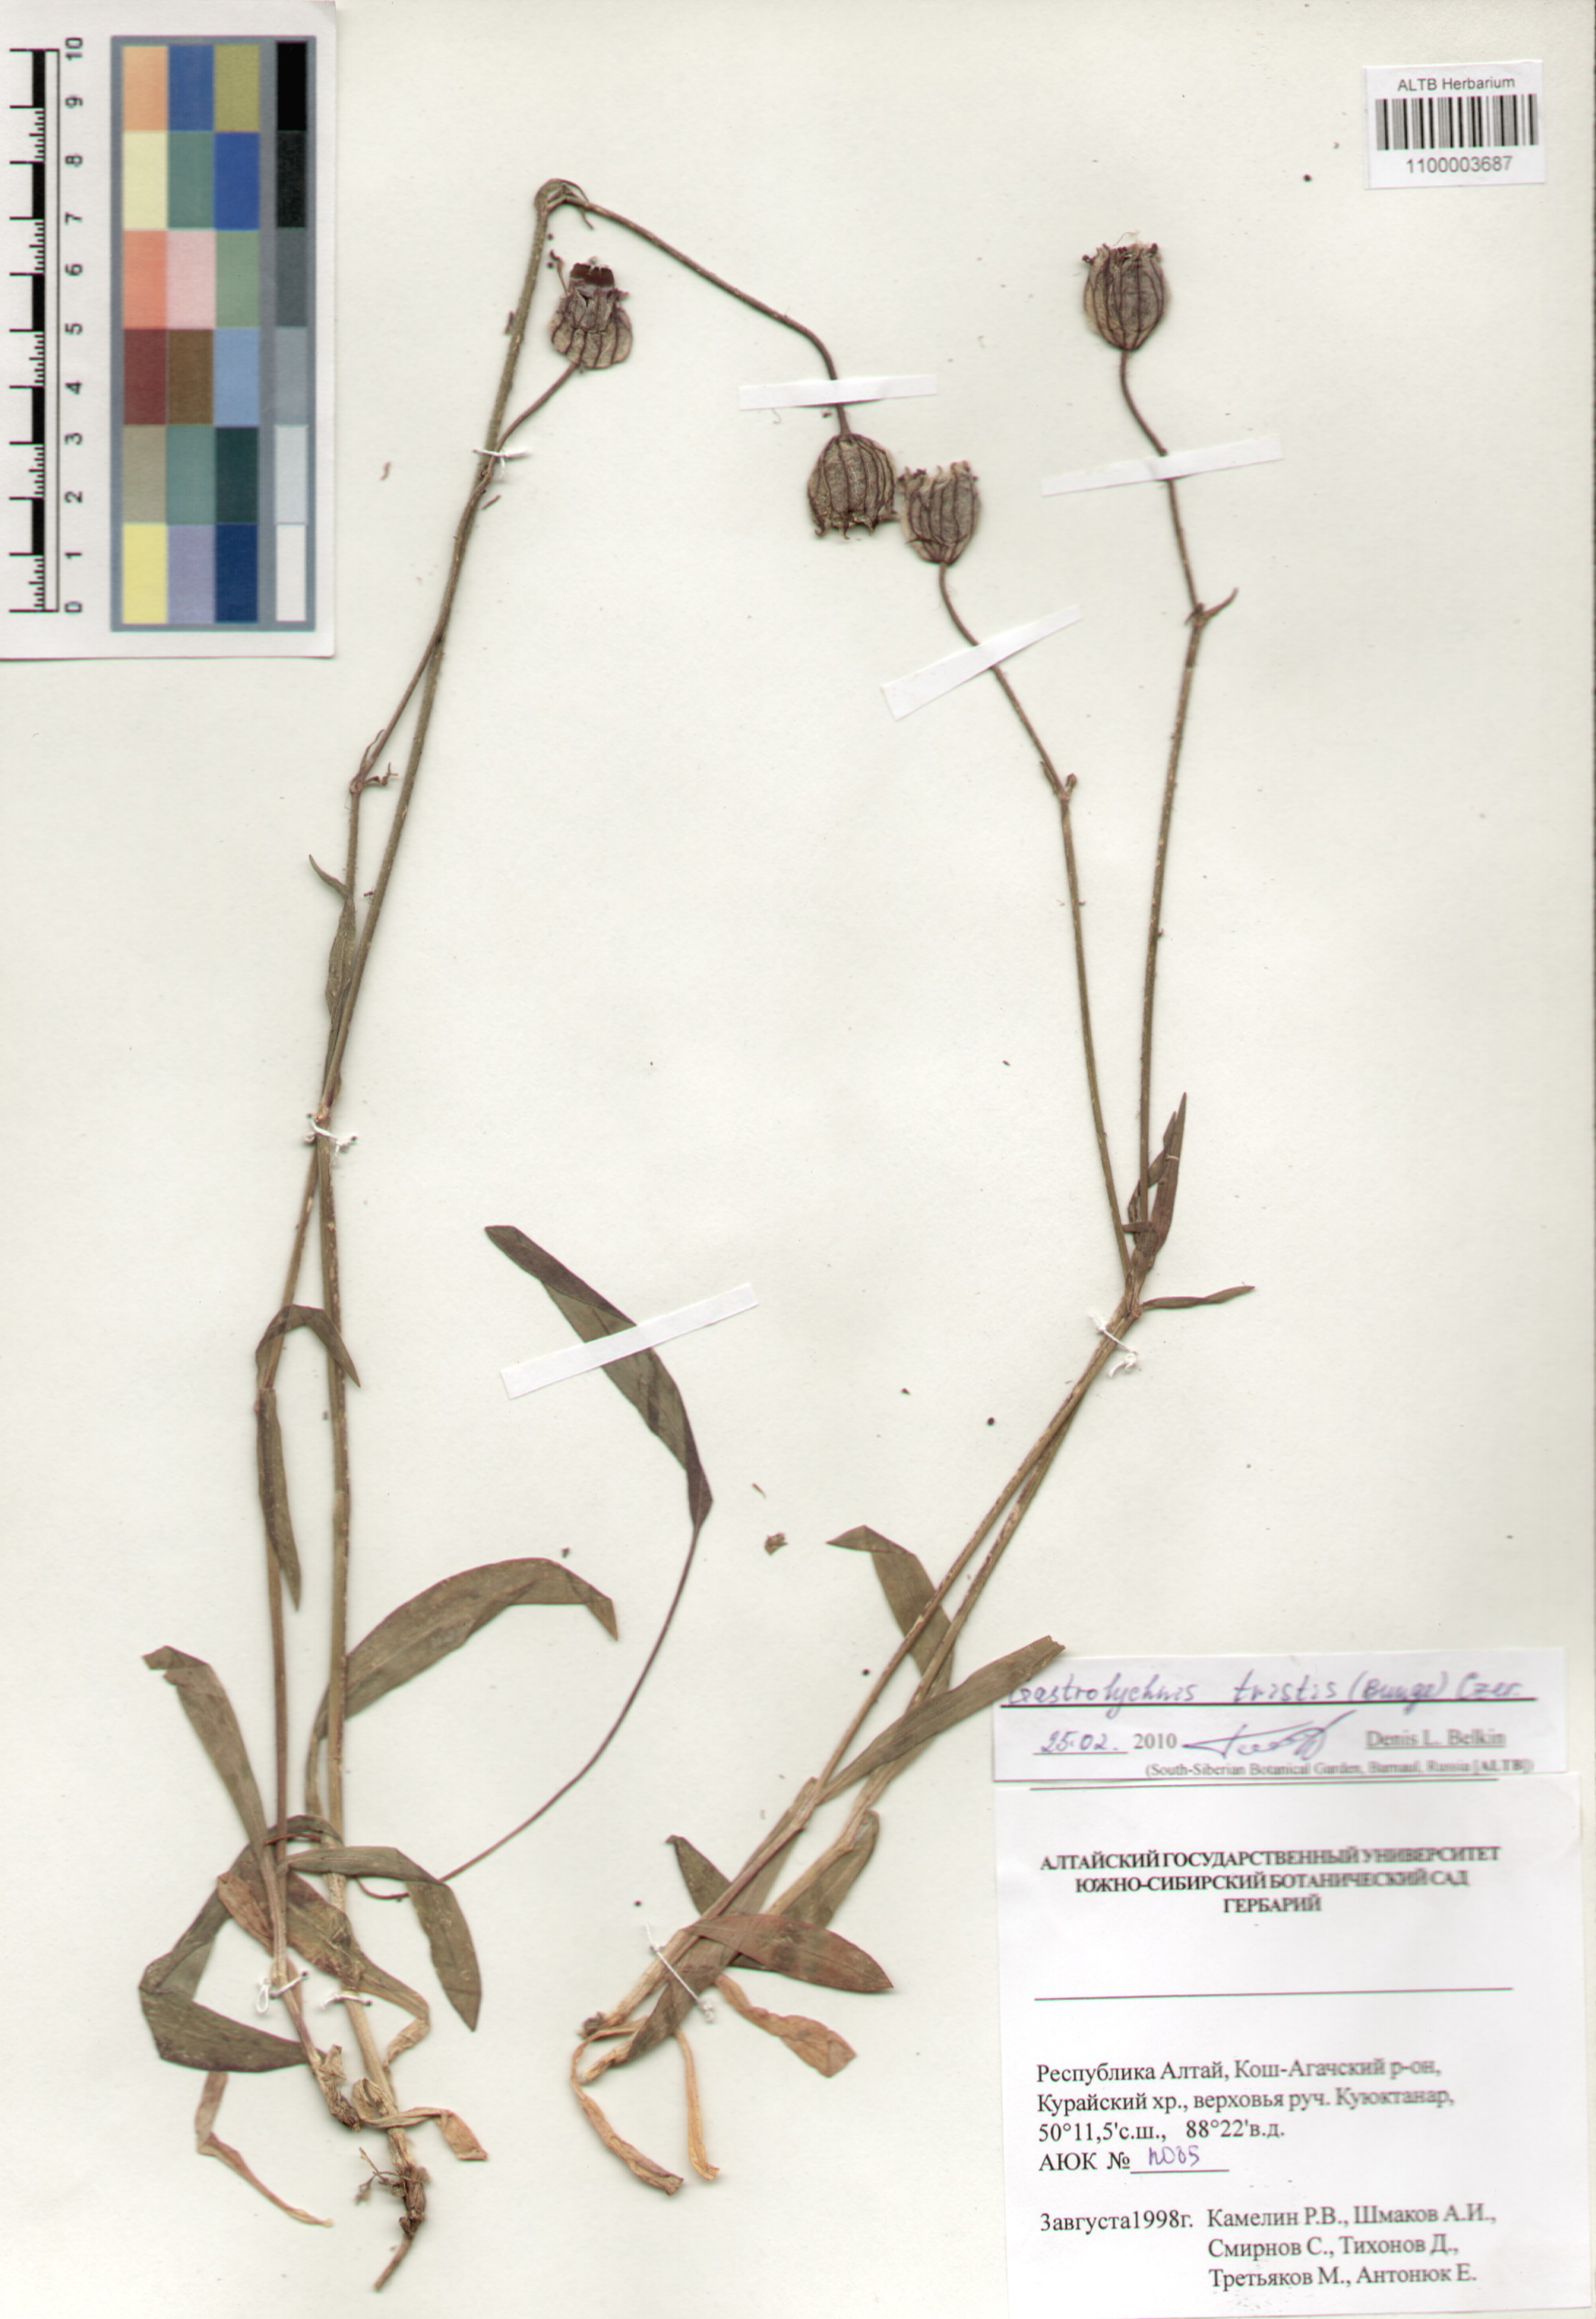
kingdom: Plantae
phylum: Tracheophyta
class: Magnoliopsida
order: Caryophyllales
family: Caryophyllaceae
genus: Silene
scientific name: Silene bungei
